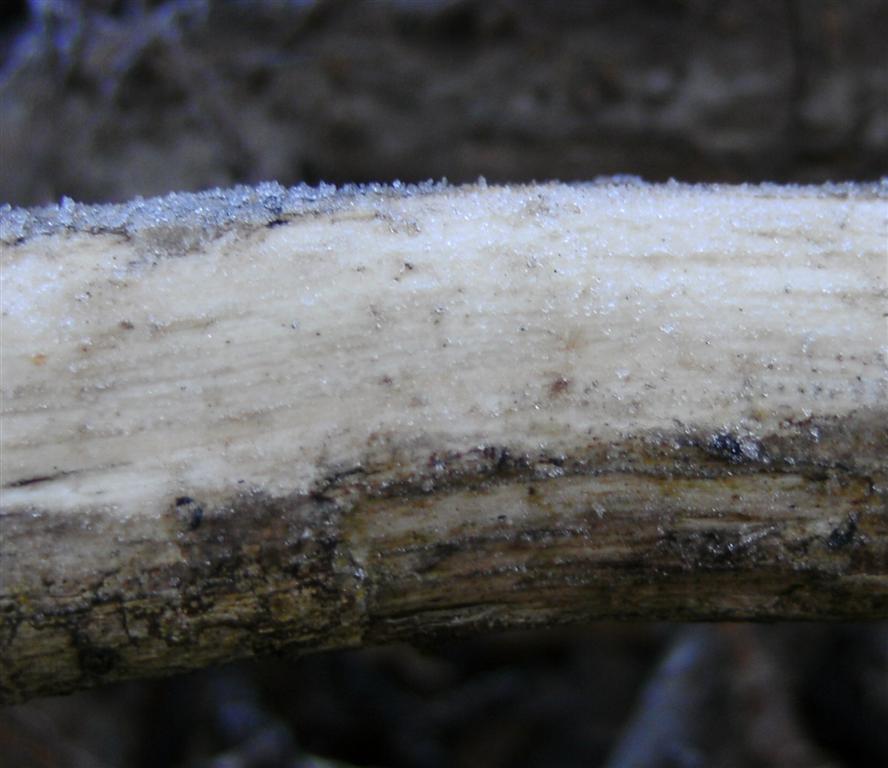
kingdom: Fungi
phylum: Basidiomycota
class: Agaricomycetes
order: Corticiales
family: Vuilleminiaceae
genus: Vuilleminia
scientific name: Vuilleminia comedens
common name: almindelig barksprænger
